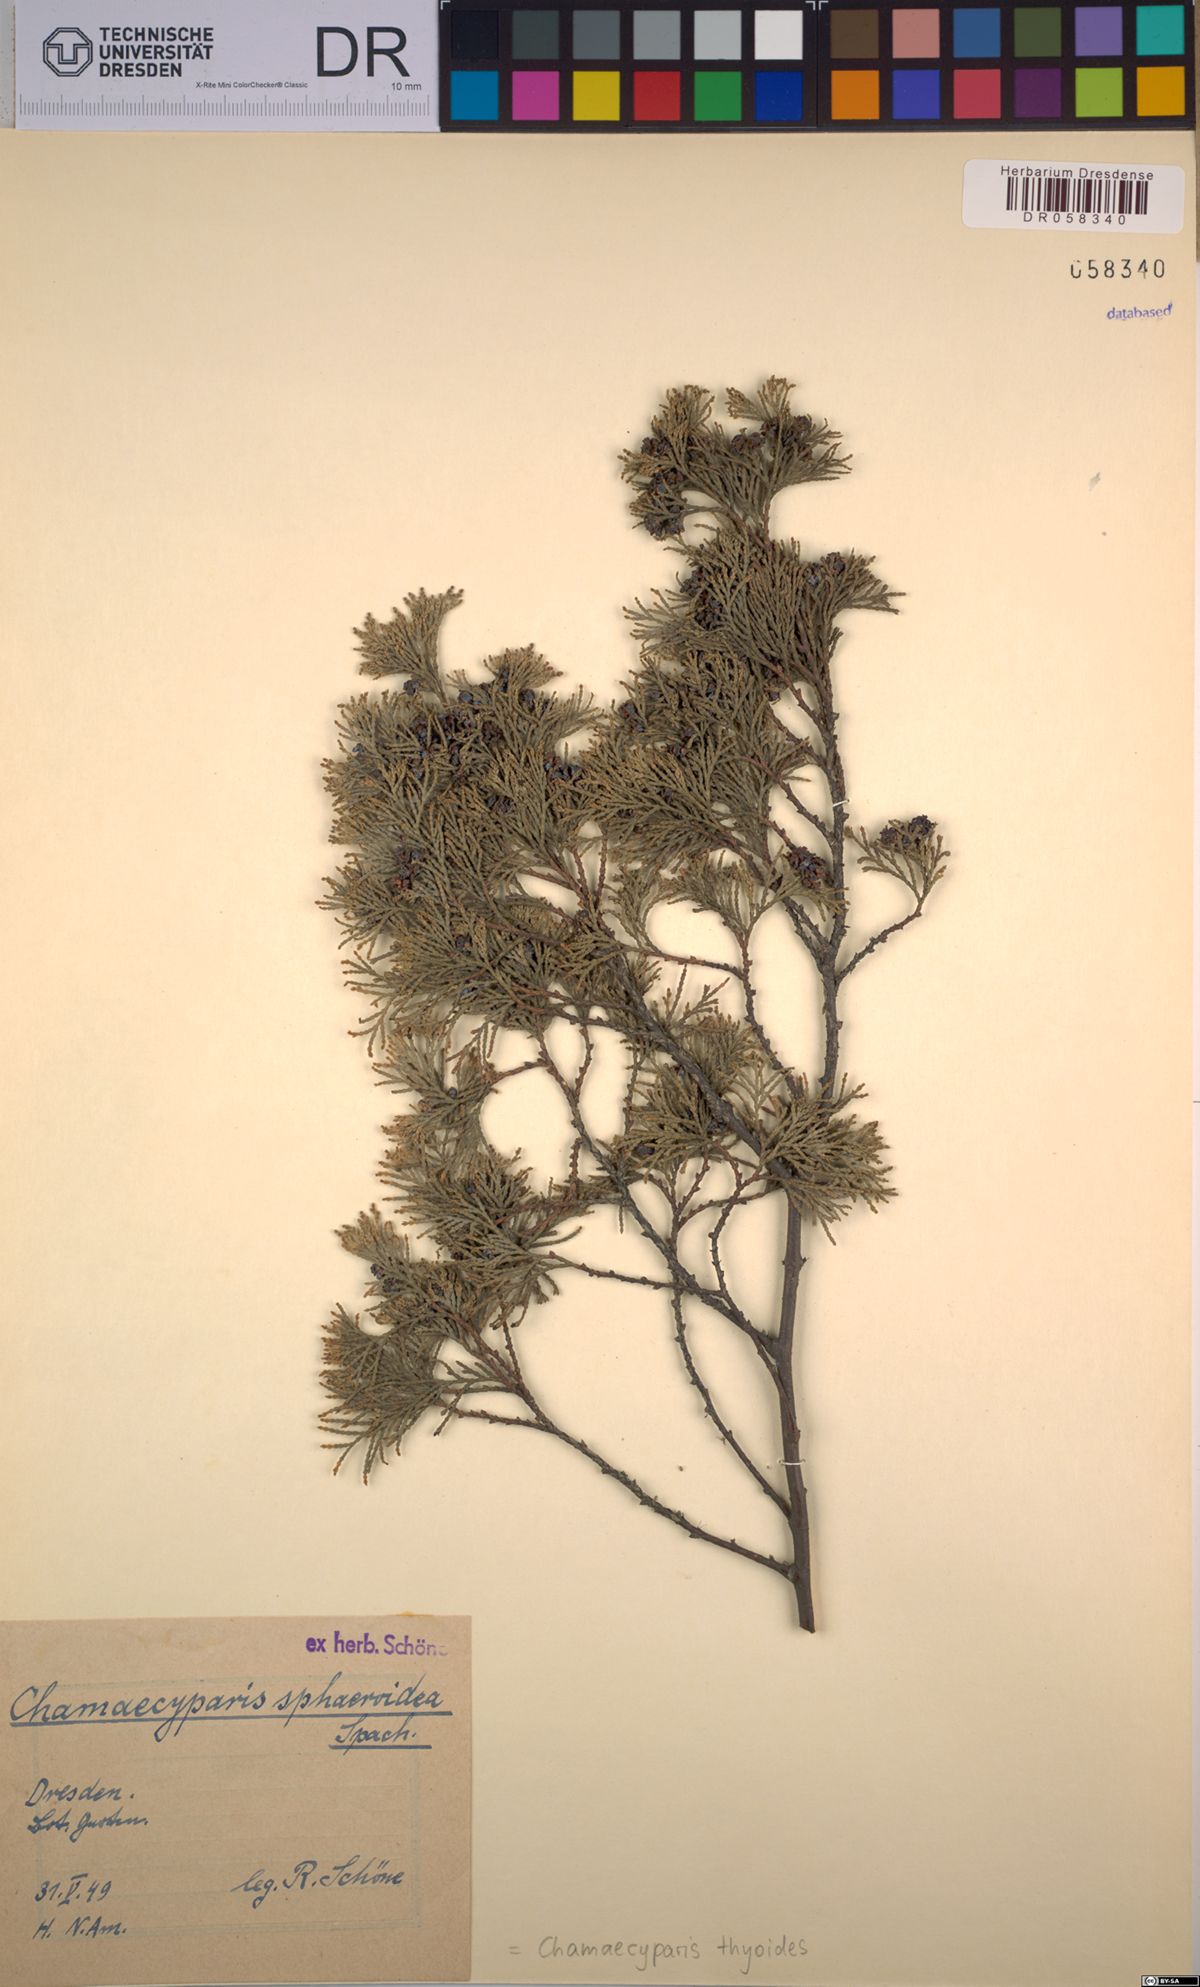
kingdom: Plantae
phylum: Tracheophyta
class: Pinopsida
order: Pinales
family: Cupressaceae
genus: Chamaecyparis
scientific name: Chamaecyparis thyoides
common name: Atlantic white cedar
